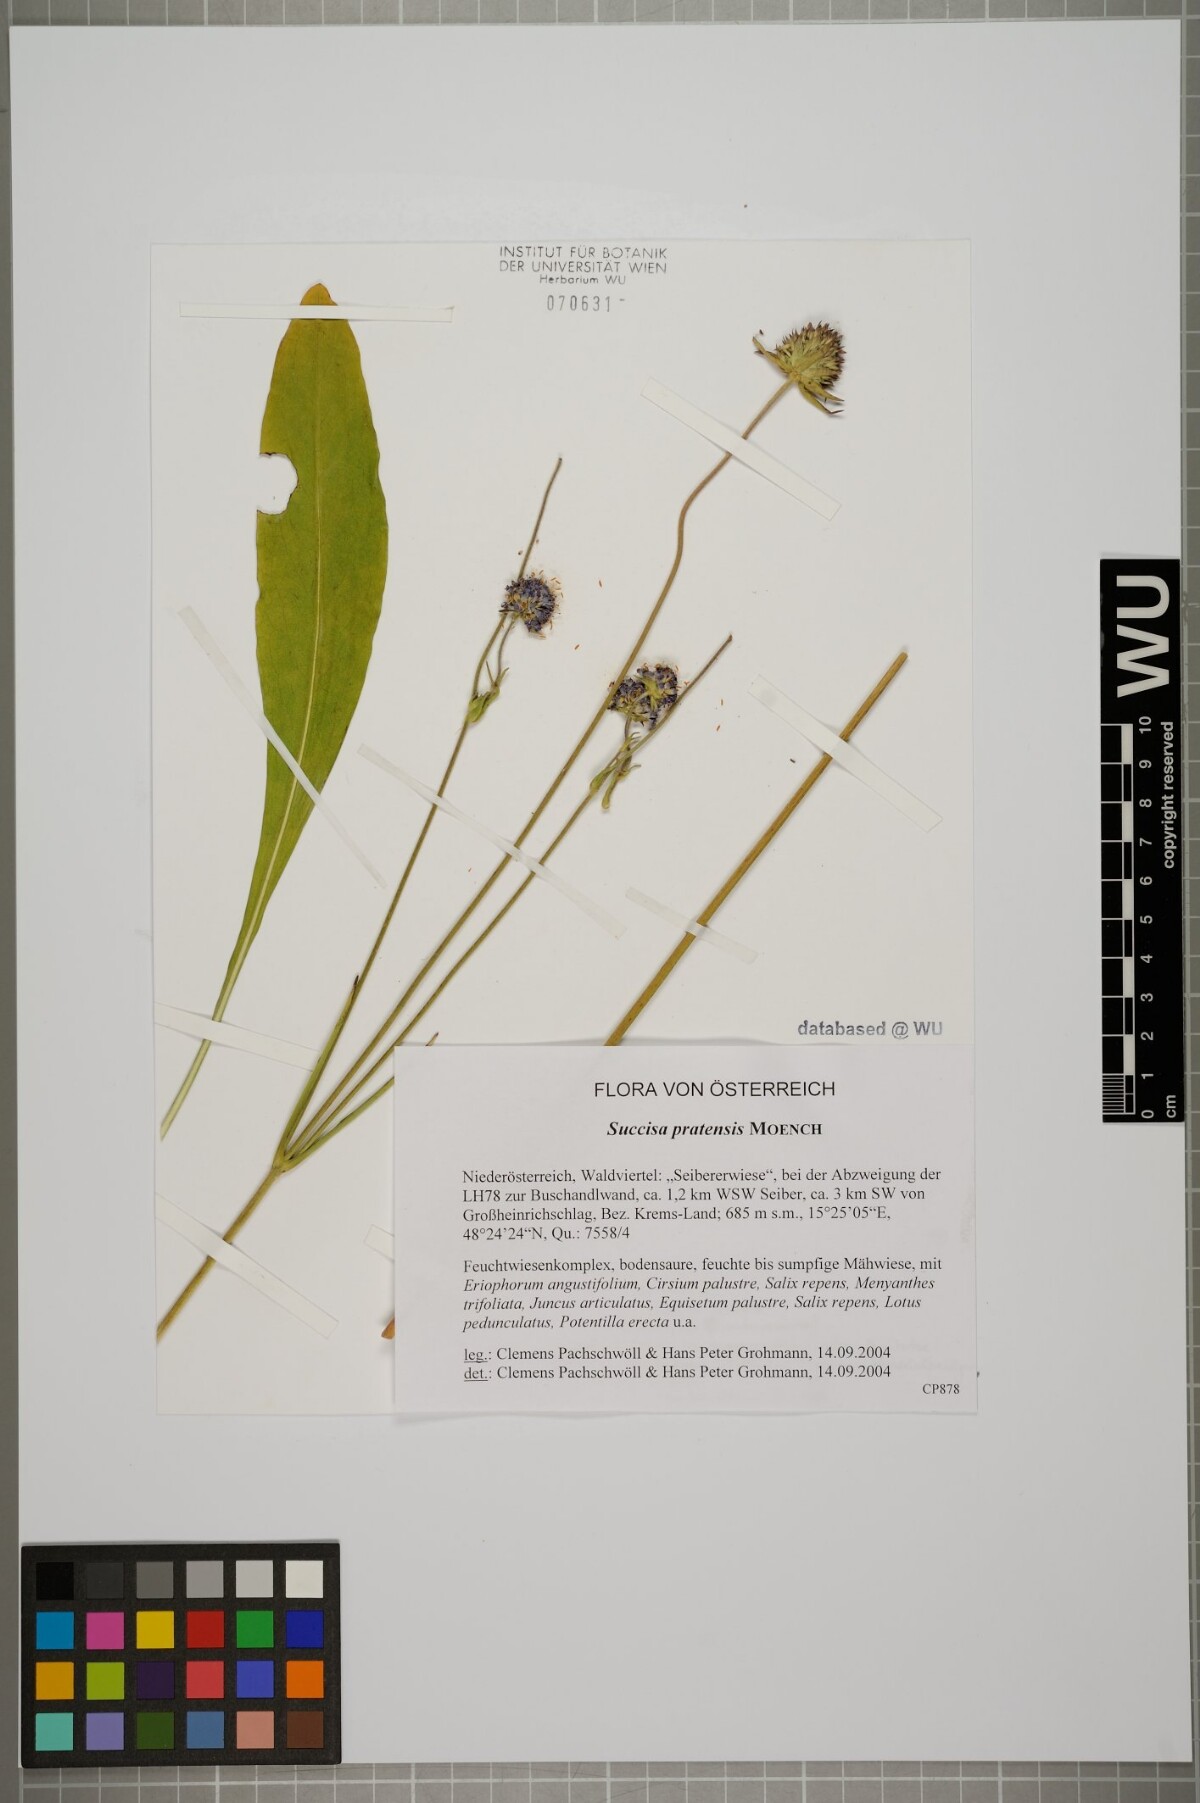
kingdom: Plantae
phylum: Tracheophyta
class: Magnoliopsida
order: Dipsacales
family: Caprifoliaceae
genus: Succisa
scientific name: Succisa pratensis
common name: Devil's-bit
